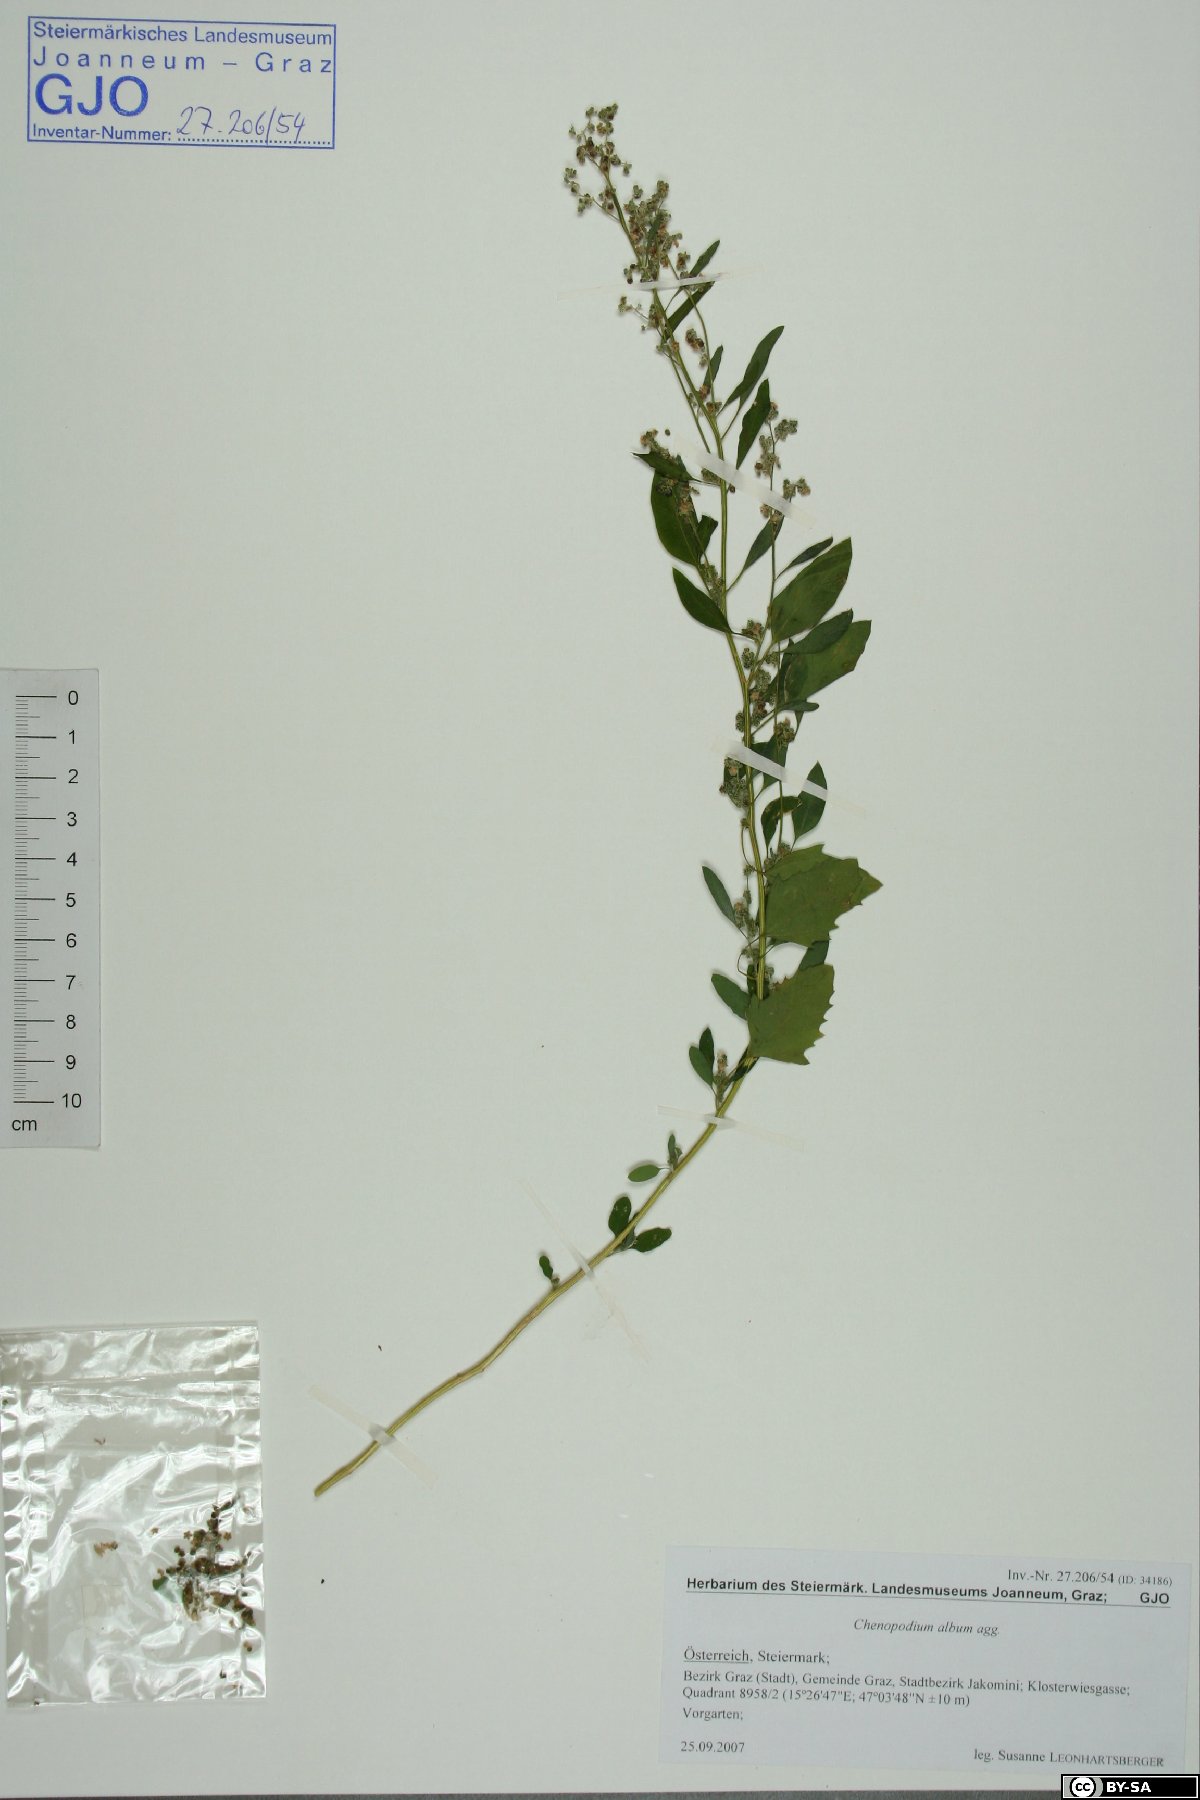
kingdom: Plantae
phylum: Tracheophyta
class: Magnoliopsida
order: Caryophyllales
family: Amaranthaceae
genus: Chenopodium
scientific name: Chenopodium album
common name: Fat-hen
